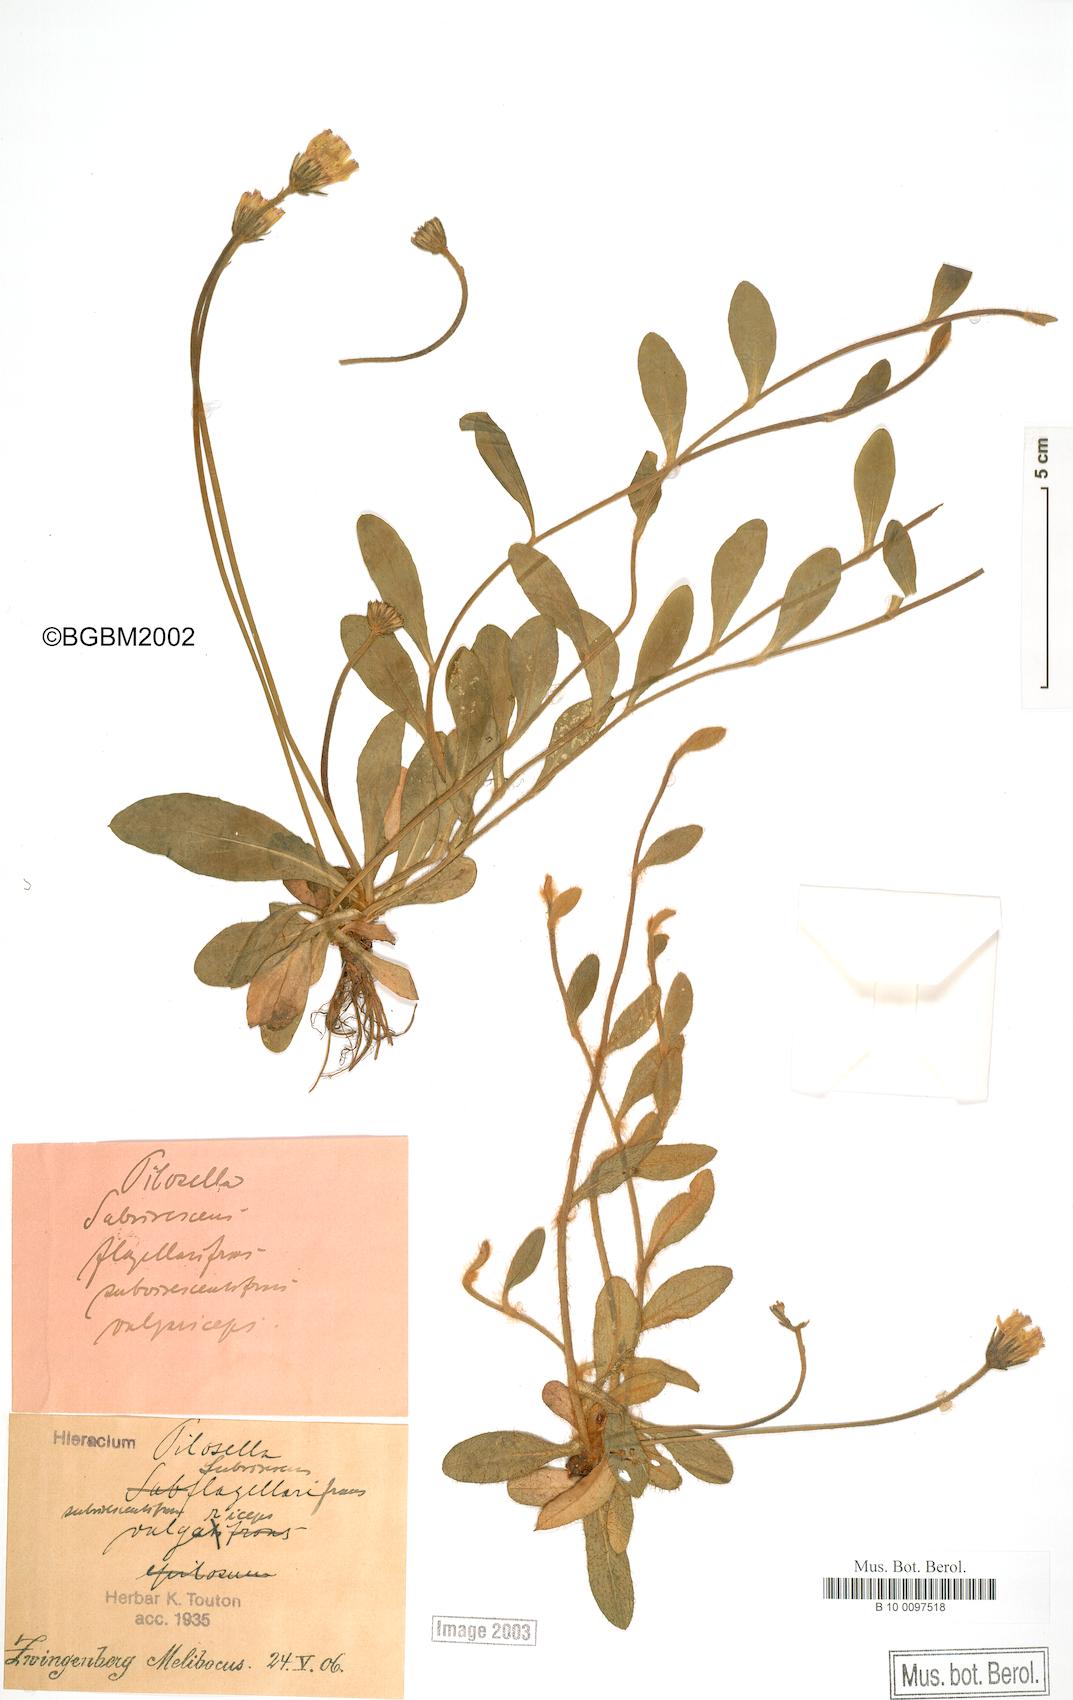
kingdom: Plantae
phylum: Tracheophyta
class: Magnoliopsida
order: Asterales
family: Asteraceae
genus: Pilosella
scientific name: Pilosella officinarum
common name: Mouse-ear hawkweed
